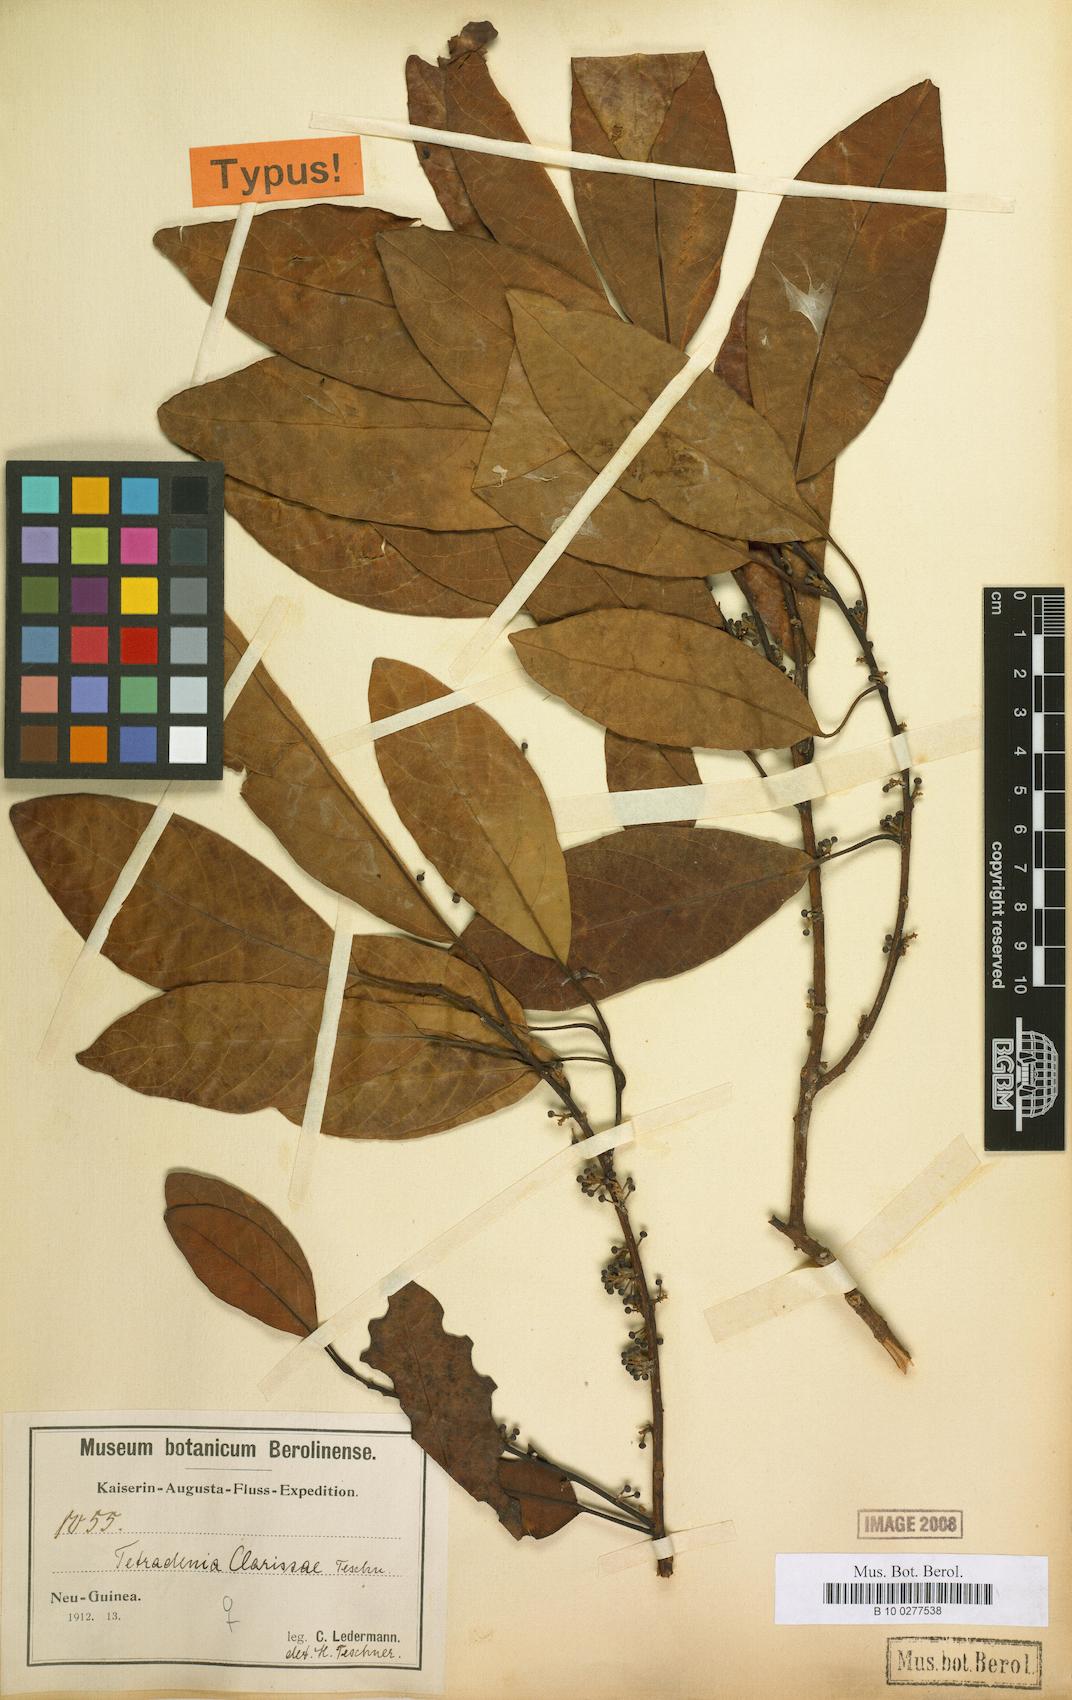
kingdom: Plantae
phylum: Tracheophyta
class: Magnoliopsida
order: Laurales
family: Lauraceae
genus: Litsea
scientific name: Litsea clarissae
